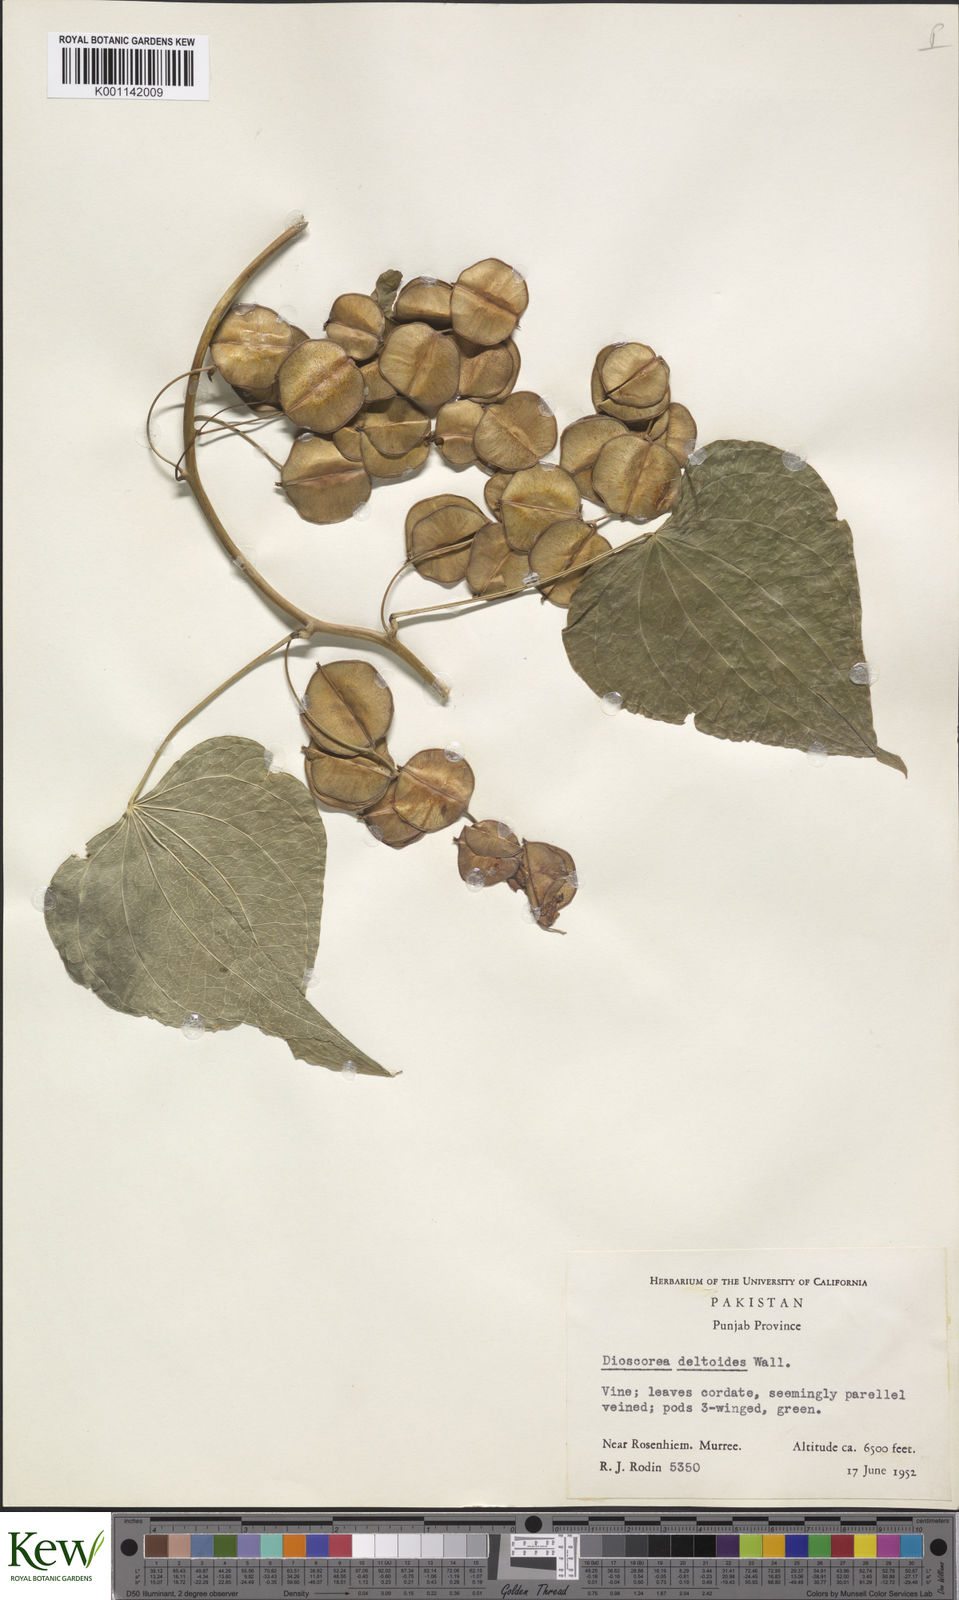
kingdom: Plantae
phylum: Tracheophyta
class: Liliopsida
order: Dioscoreales
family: Dioscoreaceae
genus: Dioscorea
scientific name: Dioscorea deltoidea
